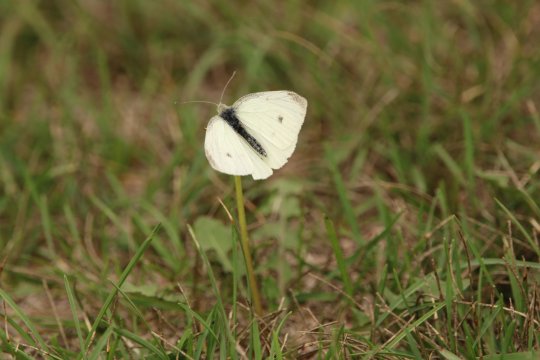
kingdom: Animalia
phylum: Arthropoda
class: Insecta
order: Lepidoptera
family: Pieridae
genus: Pieris
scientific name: Pieris rapae
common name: Cabbage White
